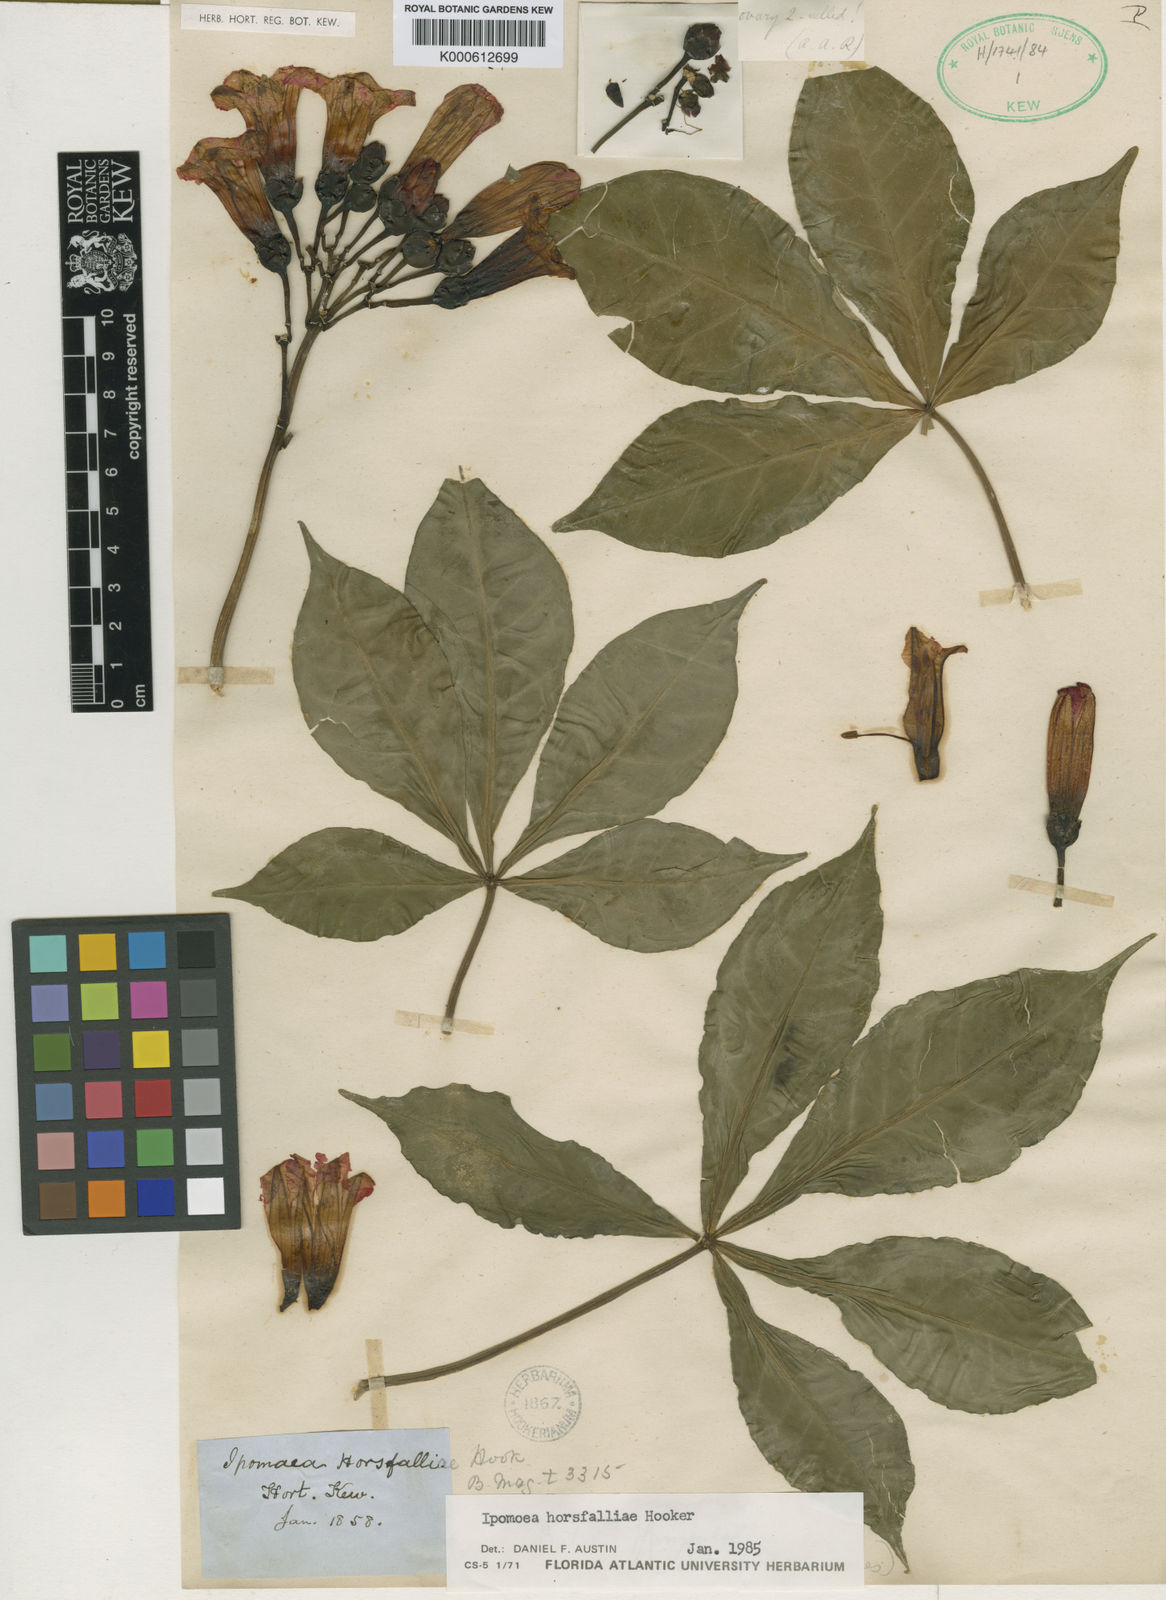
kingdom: Plantae
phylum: Tracheophyta
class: Magnoliopsida
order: Solanales
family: Convolvulaceae
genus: Ipomoea
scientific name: Ipomoea horsfalliae
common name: Prince's-vine
